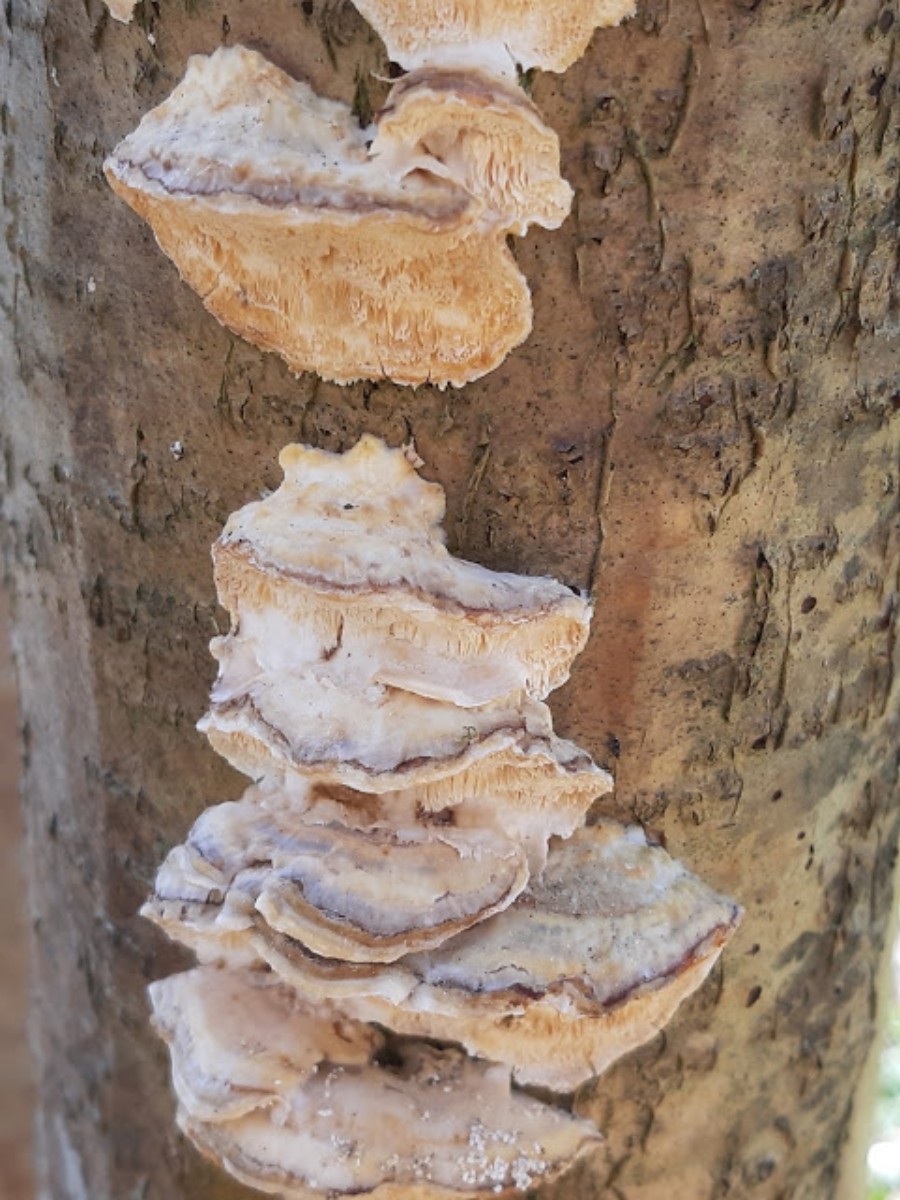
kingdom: Fungi
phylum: Basidiomycota
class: Agaricomycetes
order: Polyporales
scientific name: Polyporales
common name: poresvampordenen
